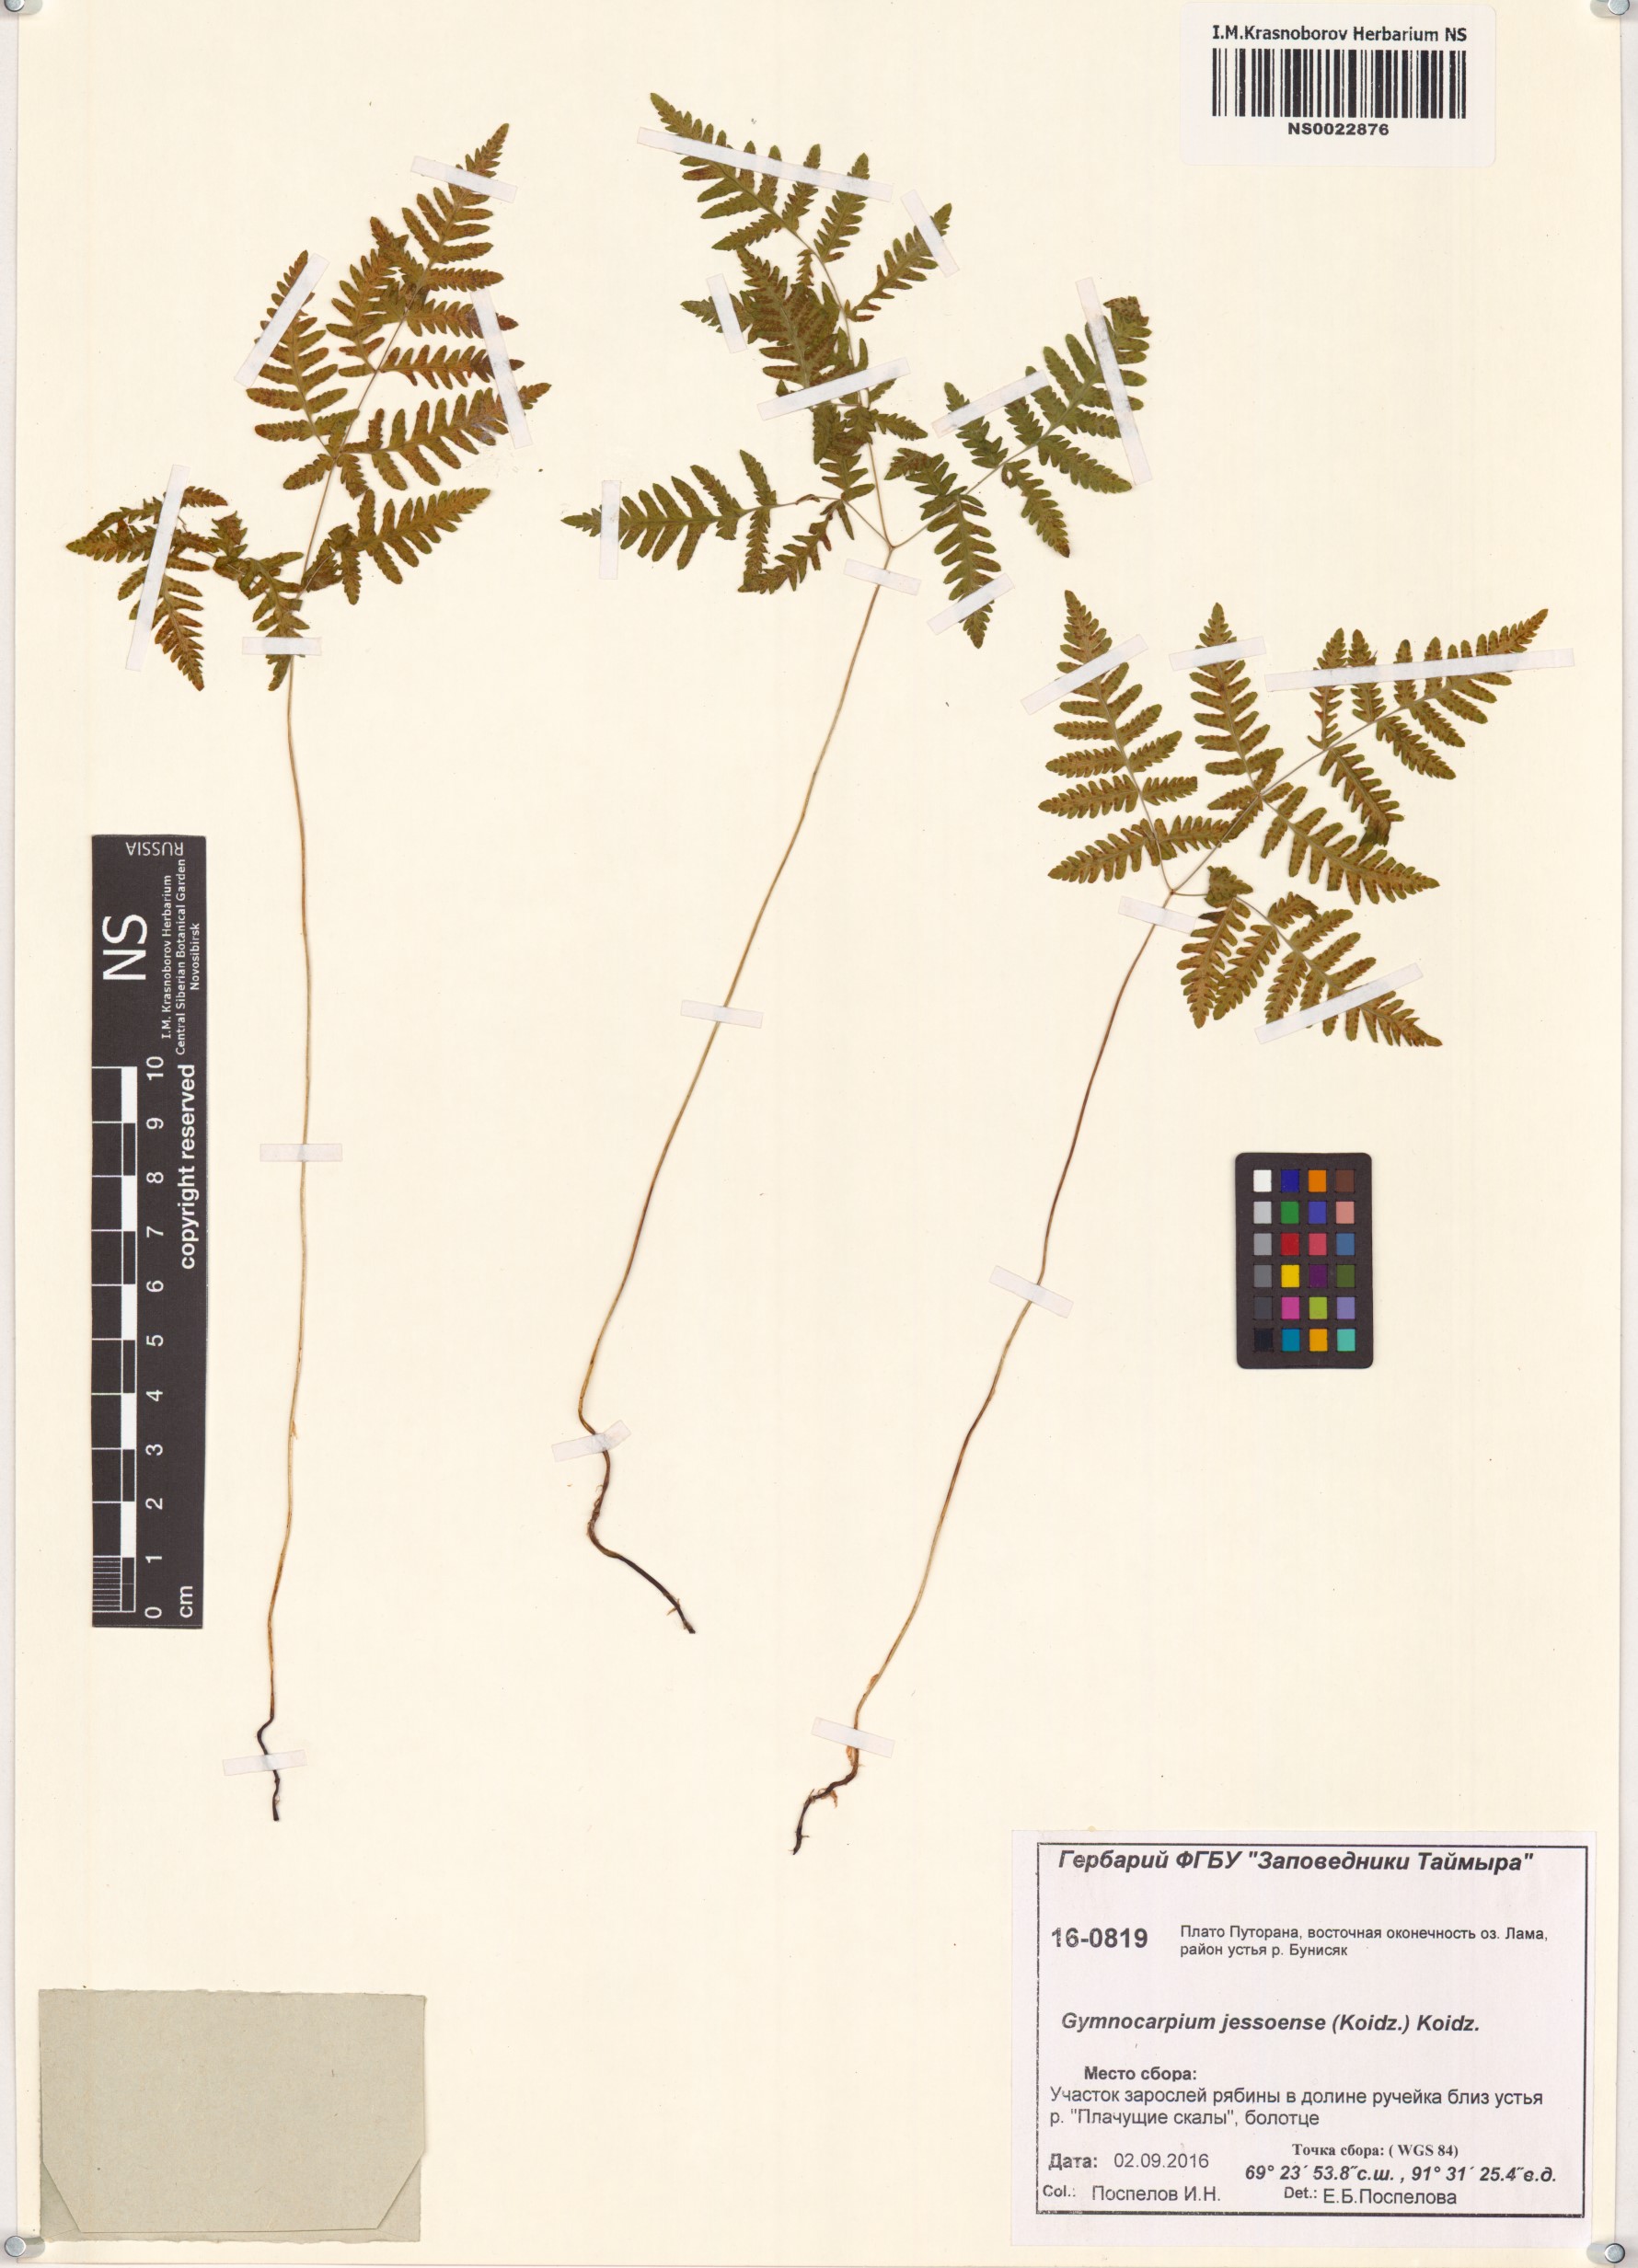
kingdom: Plantae
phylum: Tracheophyta
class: Polypodiopsida
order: Polypodiales
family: Cystopteridaceae
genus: Gymnocarpium
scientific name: Gymnocarpium jessoense
